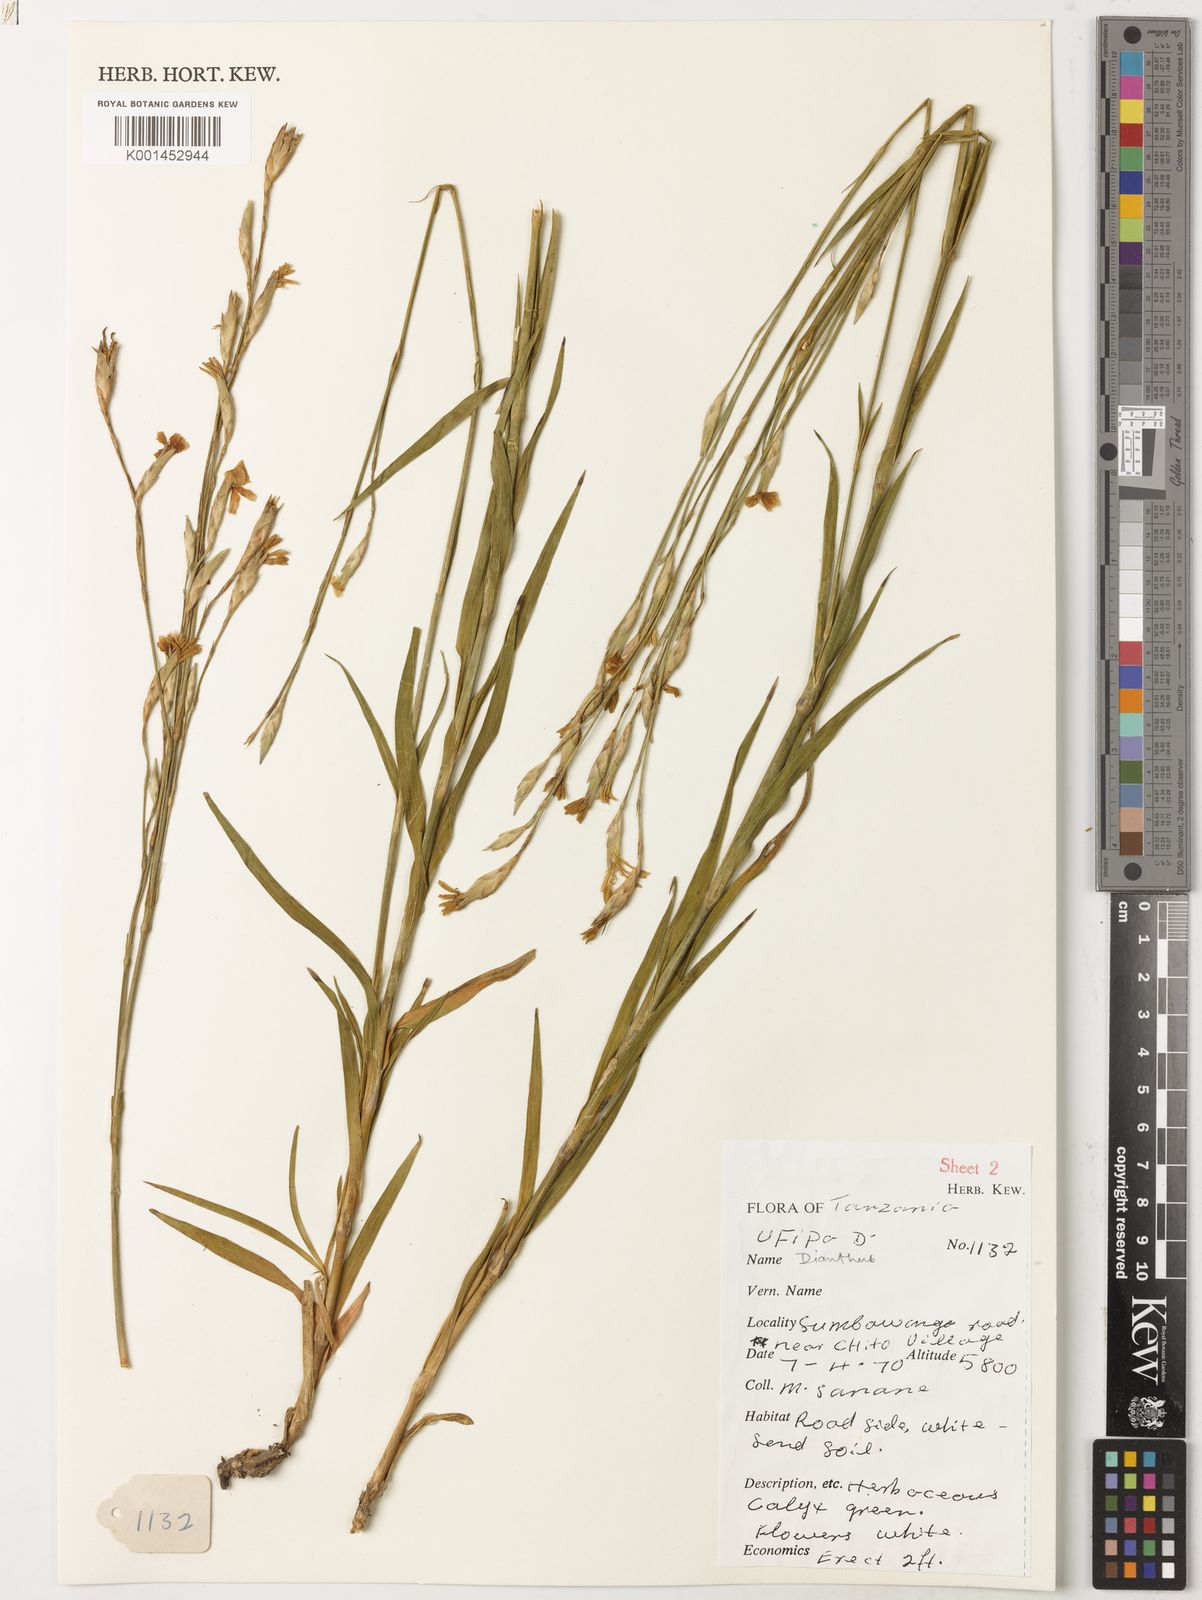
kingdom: Plantae
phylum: Tracheophyta
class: Magnoliopsida
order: Caryophyllales
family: Caryophyllaceae
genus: Dianthus
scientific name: Dianthus
